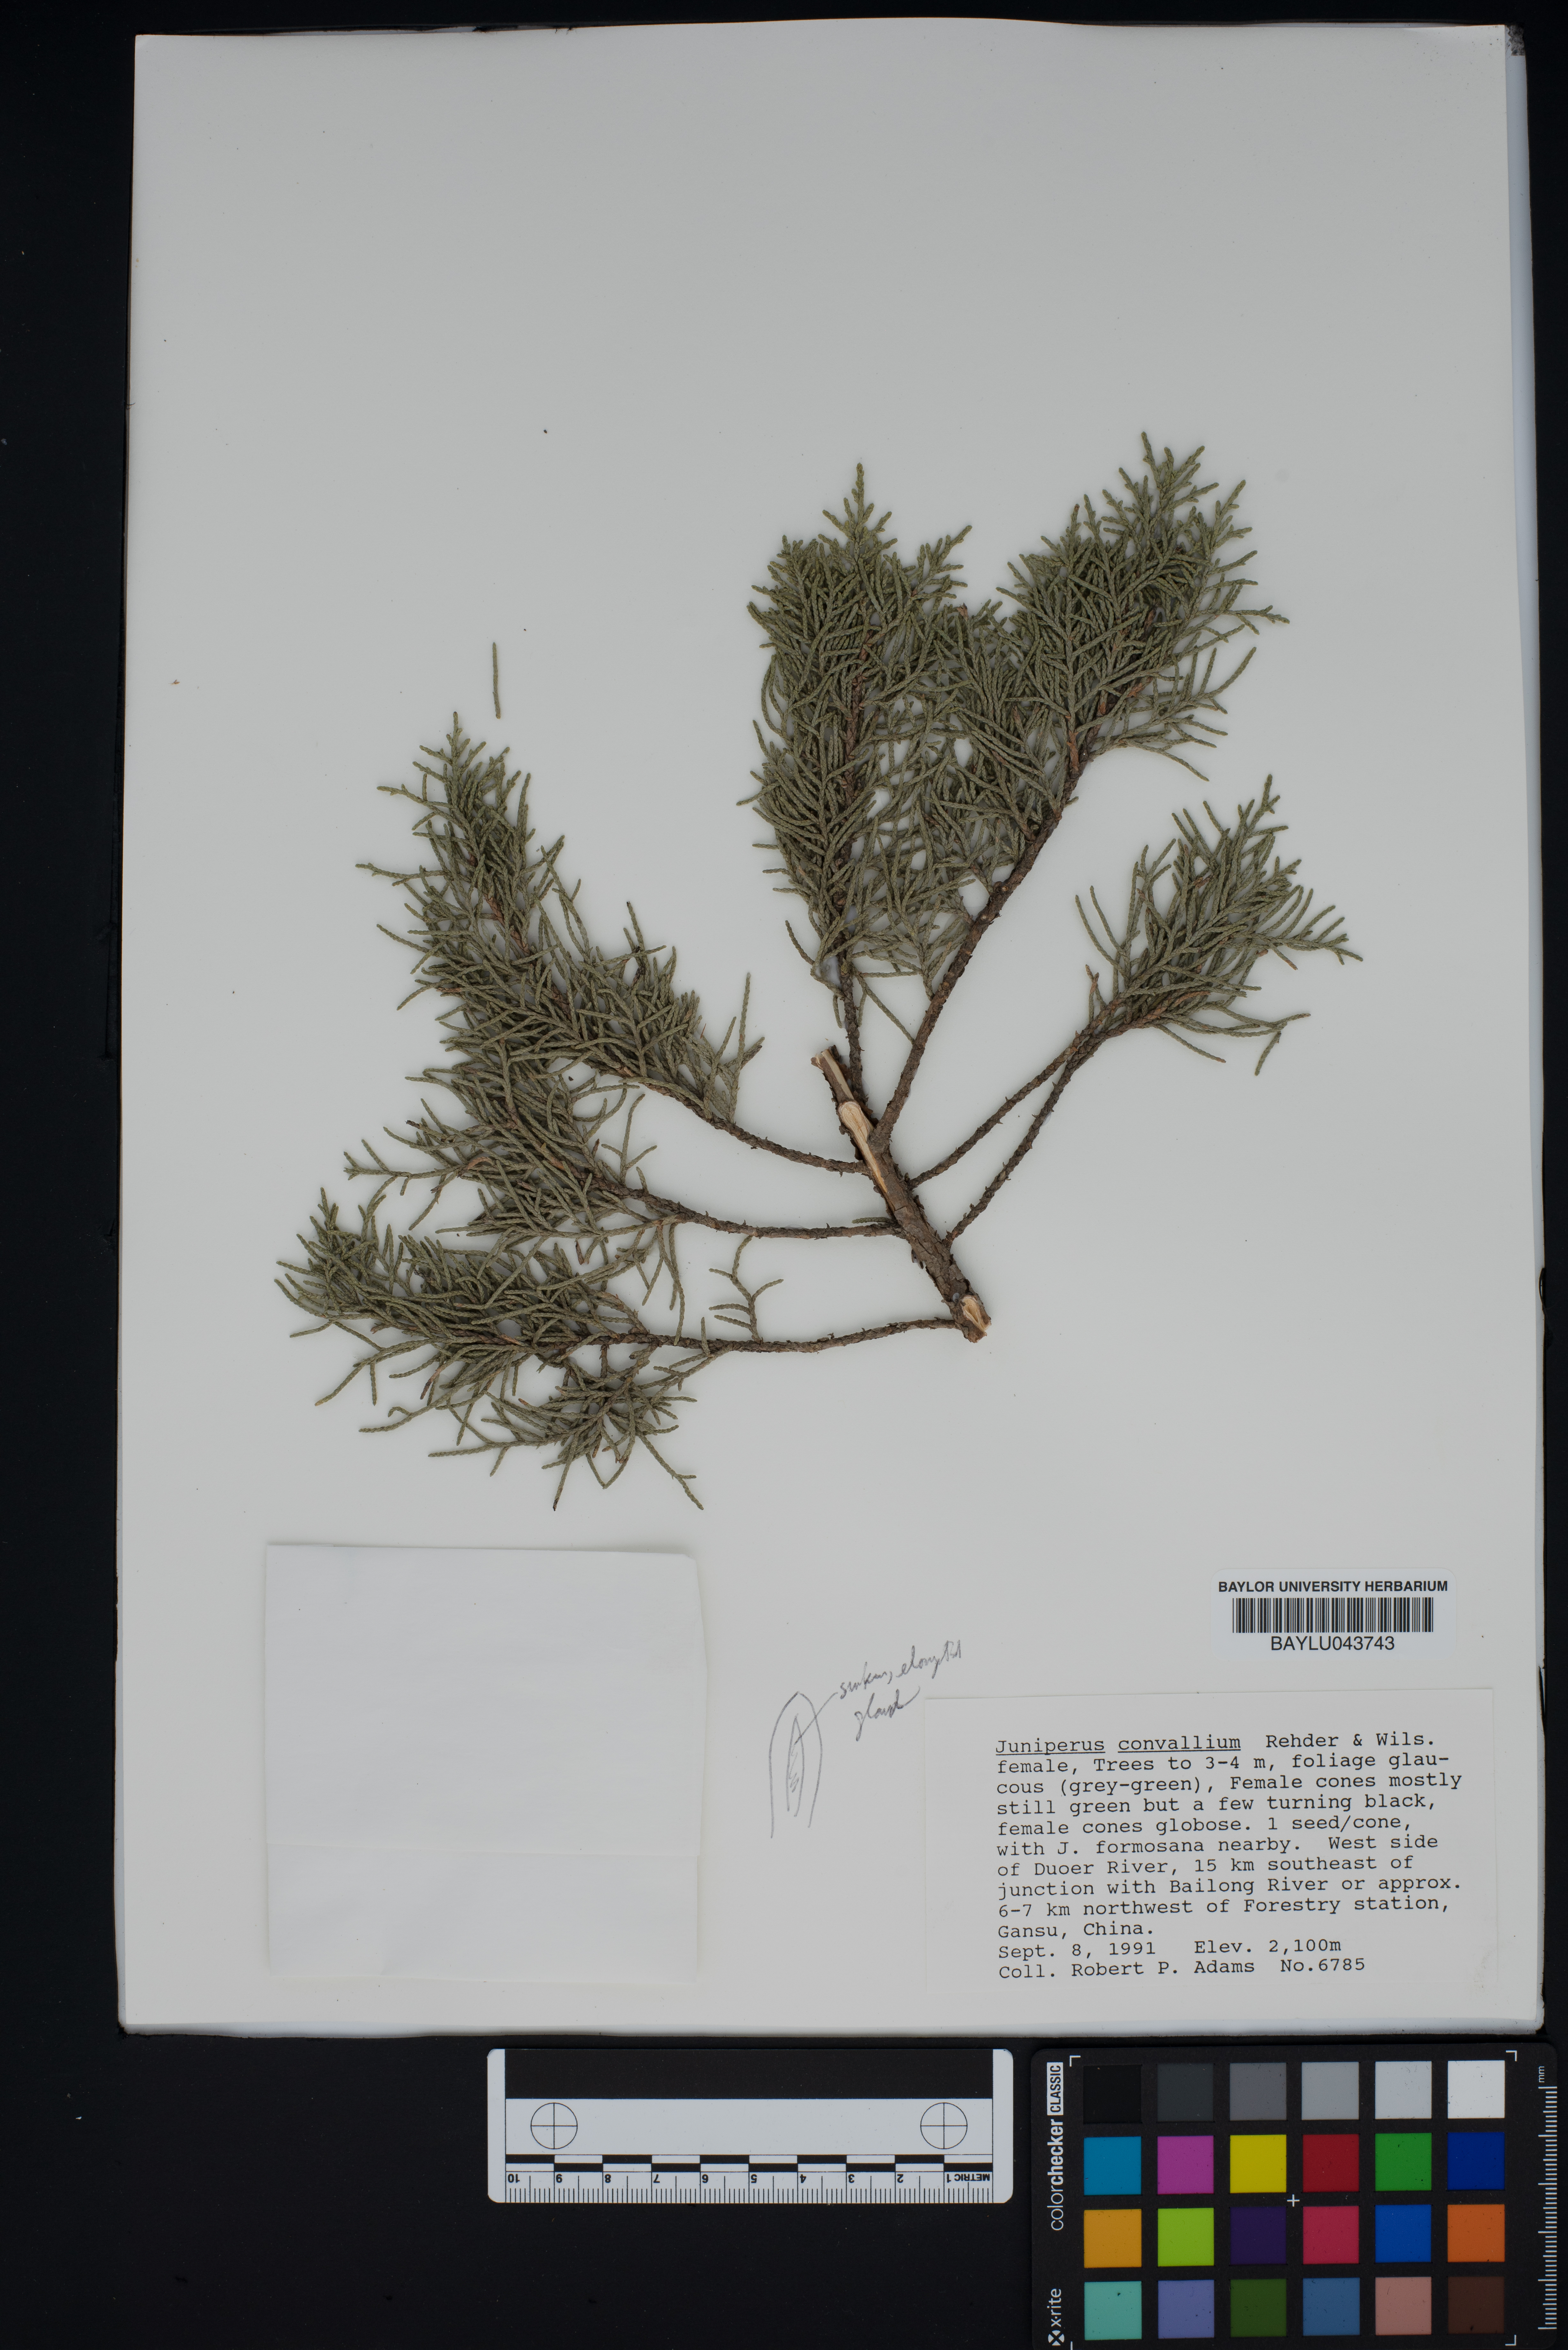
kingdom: Plantae
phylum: Tracheophyta
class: Pinopsida
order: Pinales
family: Cupressaceae
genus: Juniperus
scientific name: Juniperus convallium
